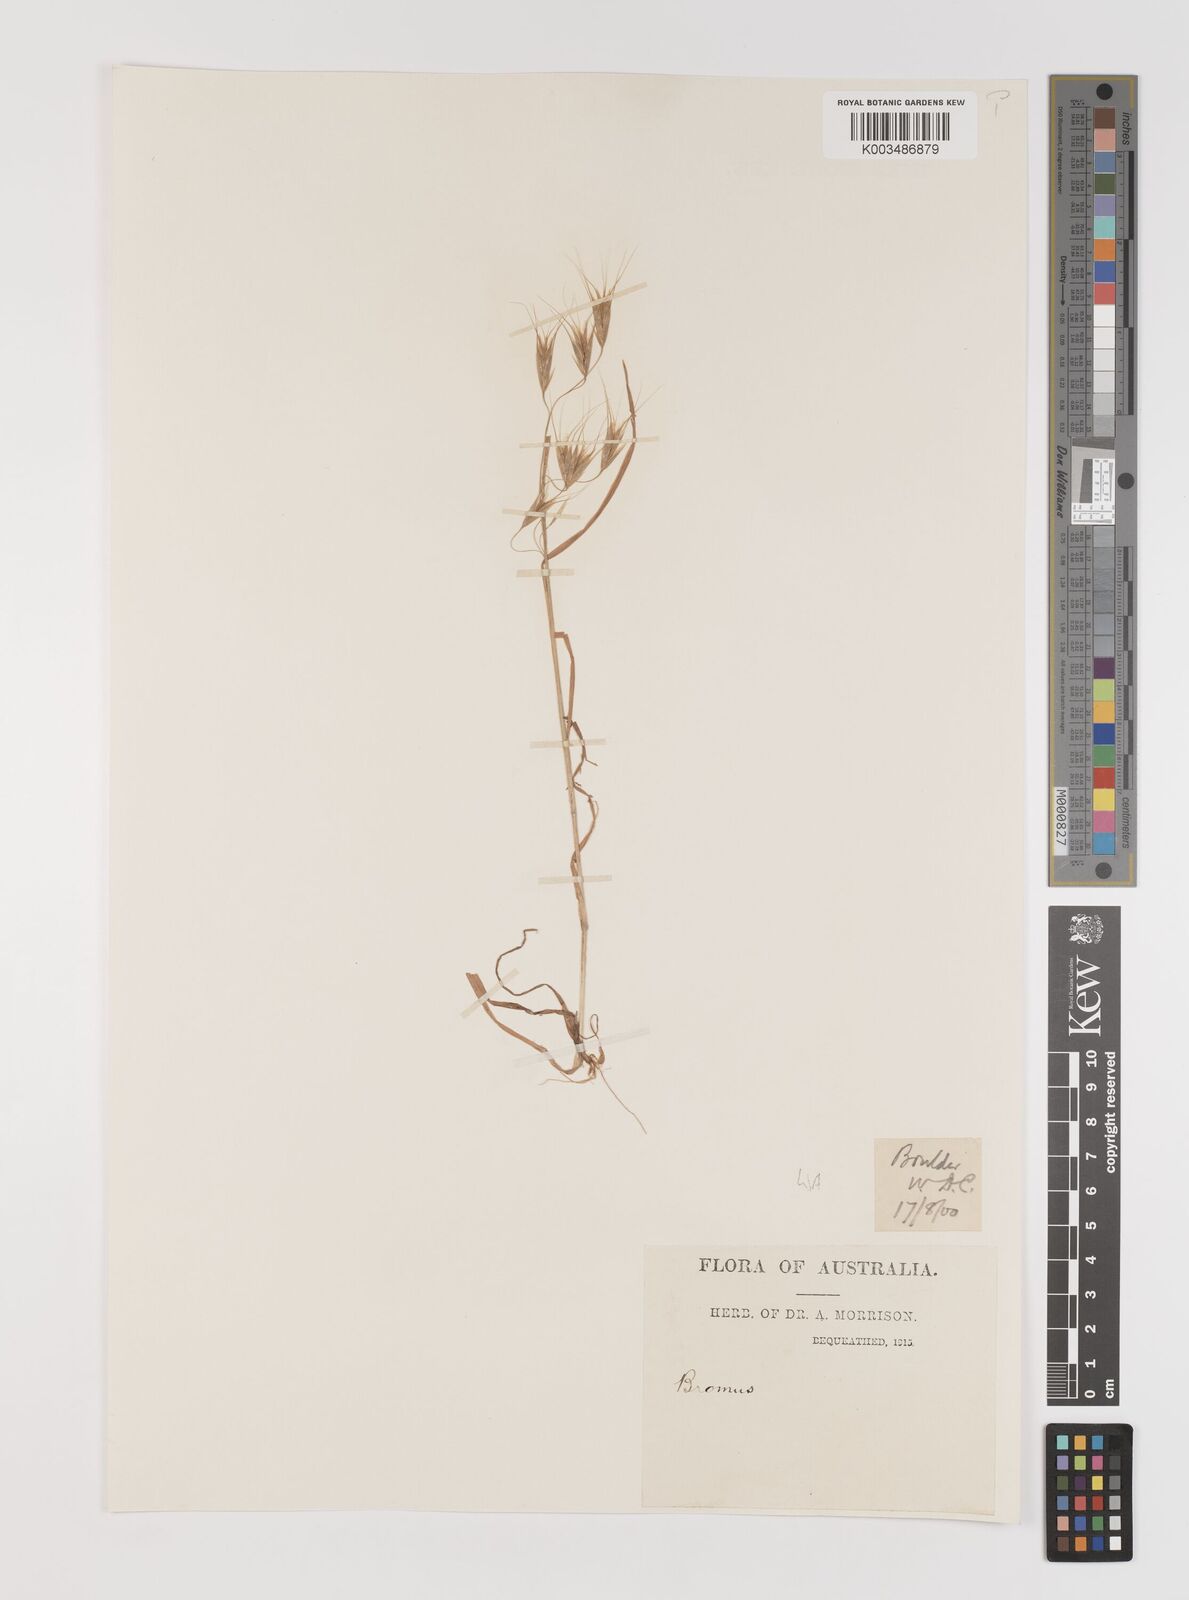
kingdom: Plantae
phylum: Tracheophyta
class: Liliopsida
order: Poales
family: Poaceae
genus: Bromus
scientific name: Bromus arenarius
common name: Australian brome
